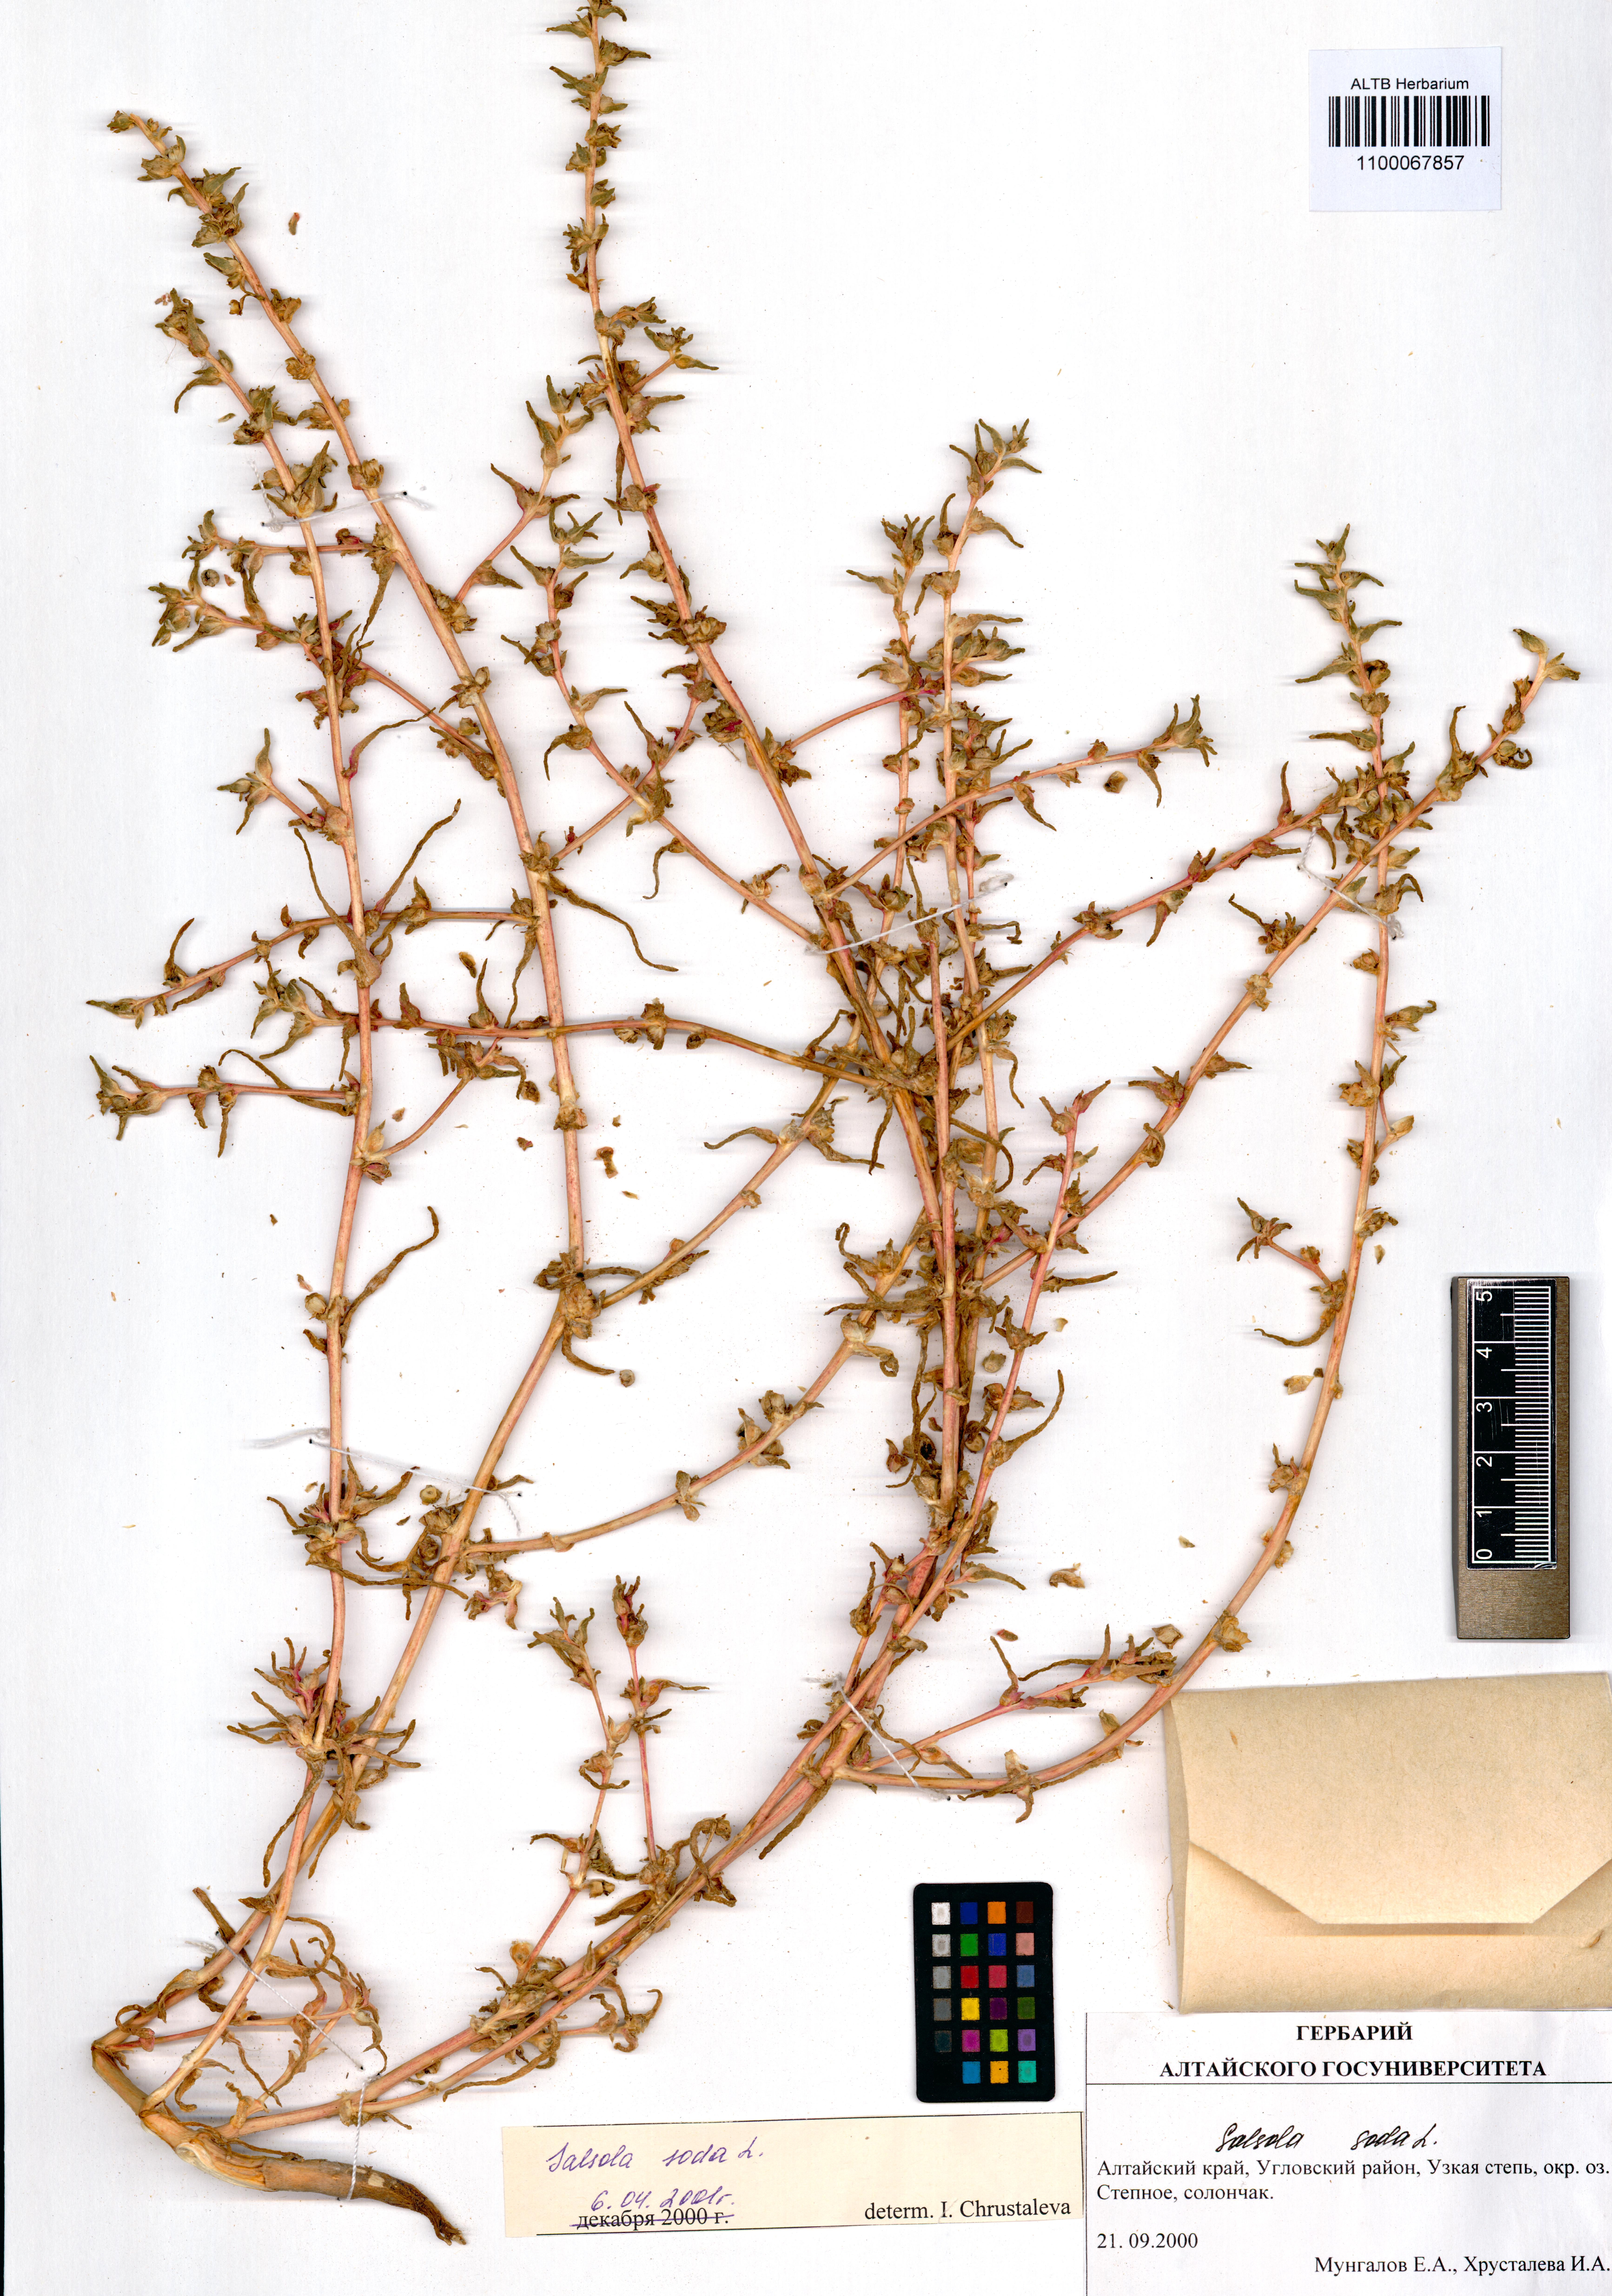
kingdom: Plantae
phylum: Tracheophyta
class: Magnoliopsida
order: Caryophyllales
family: Amaranthaceae
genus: Soda
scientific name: Soda inermis
